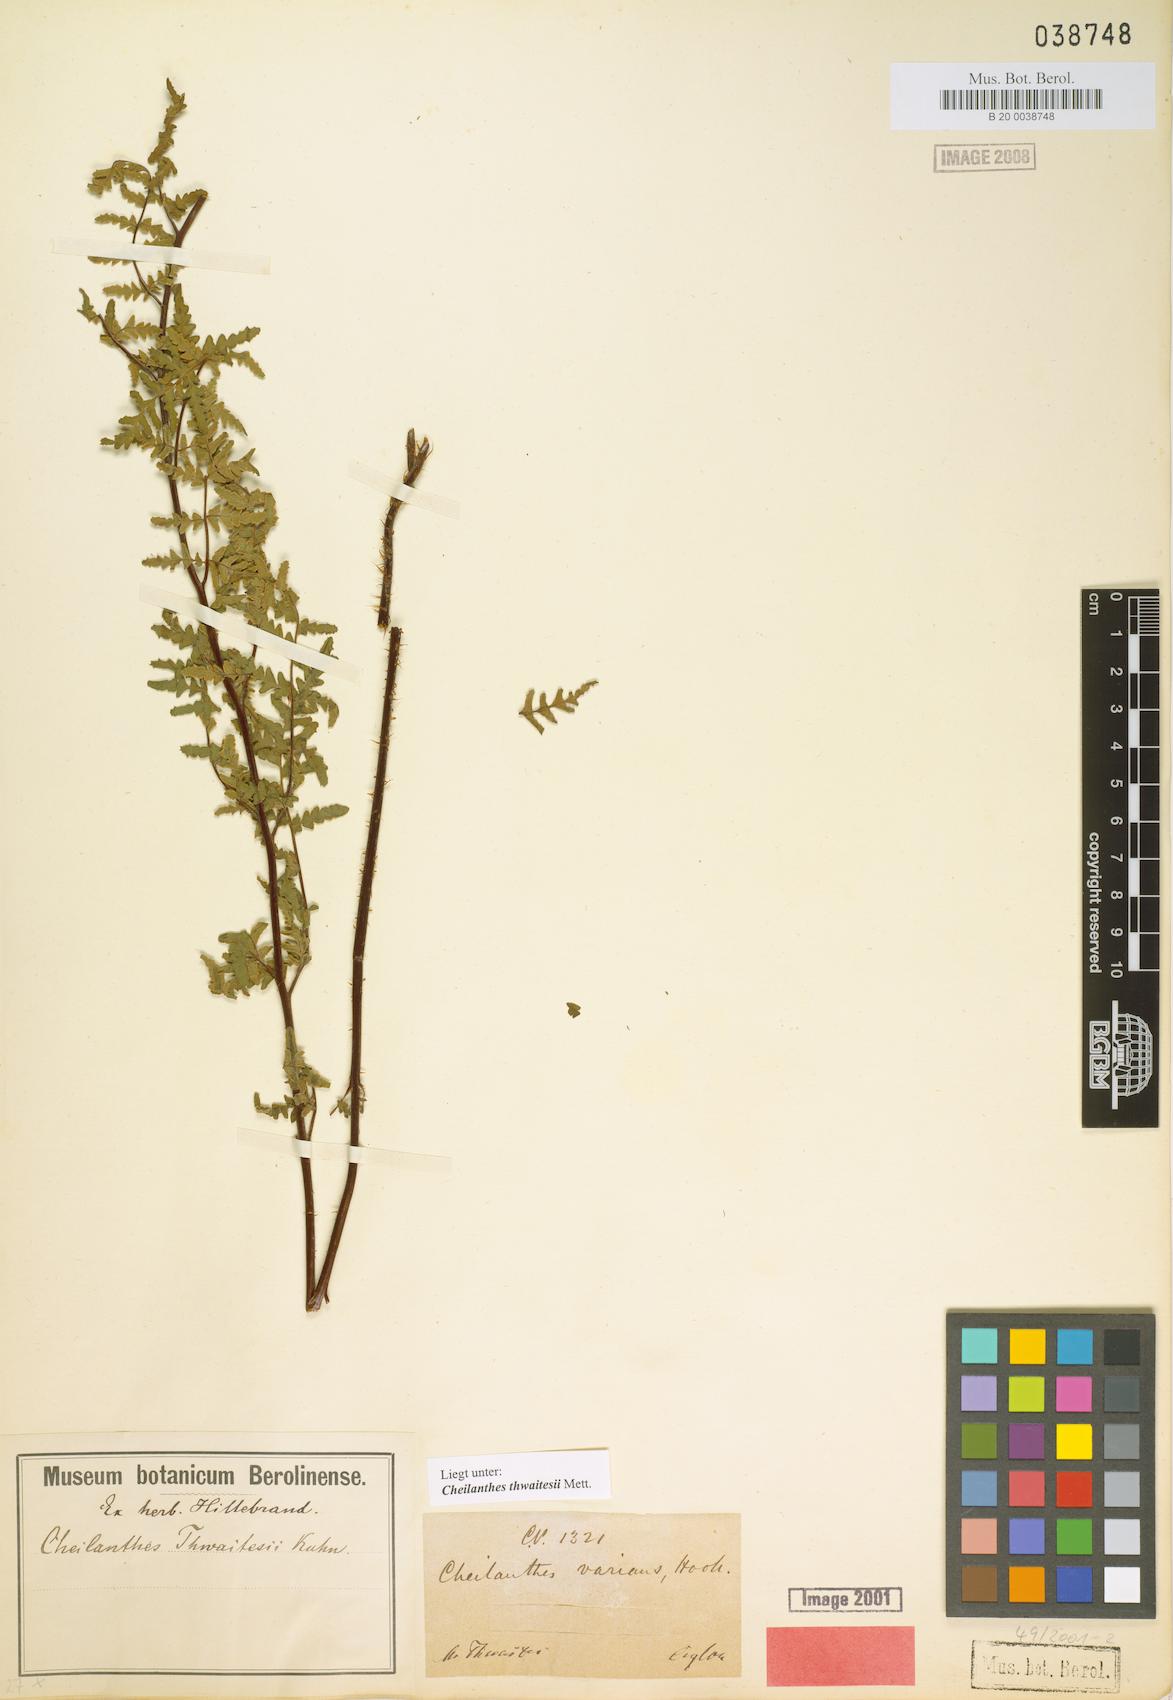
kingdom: Plantae
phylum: Tracheophyta
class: Polypodiopsida
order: Polypodiales
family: Pteridaceae
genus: Oeosporangium
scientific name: Oeosporangium thwaitesii
